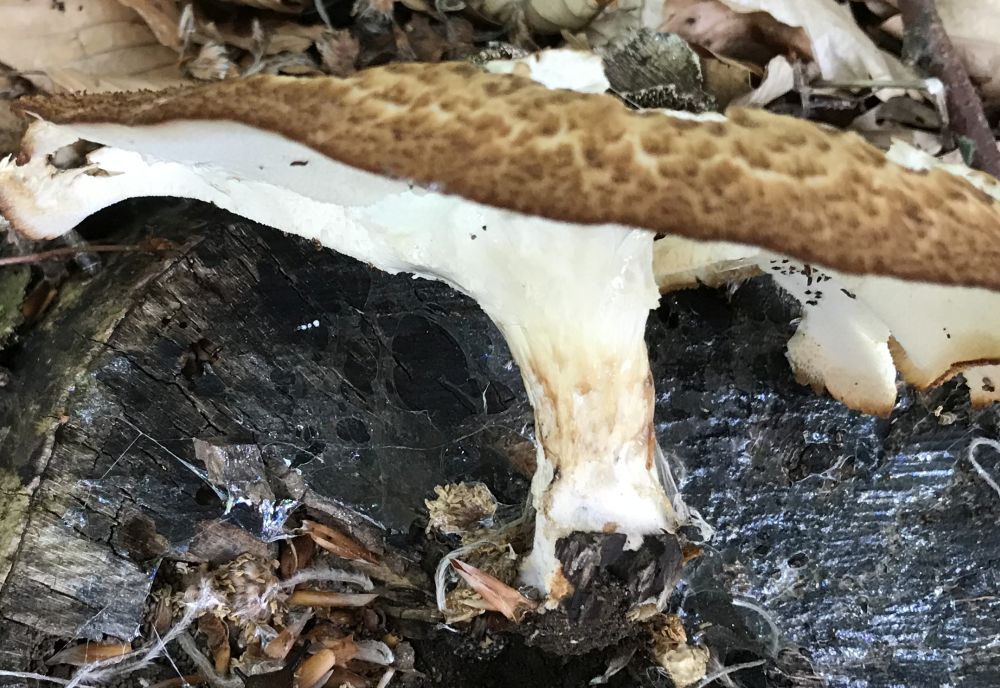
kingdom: Fungi
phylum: Basidiomycota
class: Agaricomycetes
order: Polyporales
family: Polyporaceae
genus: Polyporus
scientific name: Polyporus tuberaster
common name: knoldet stilkporesvamp
